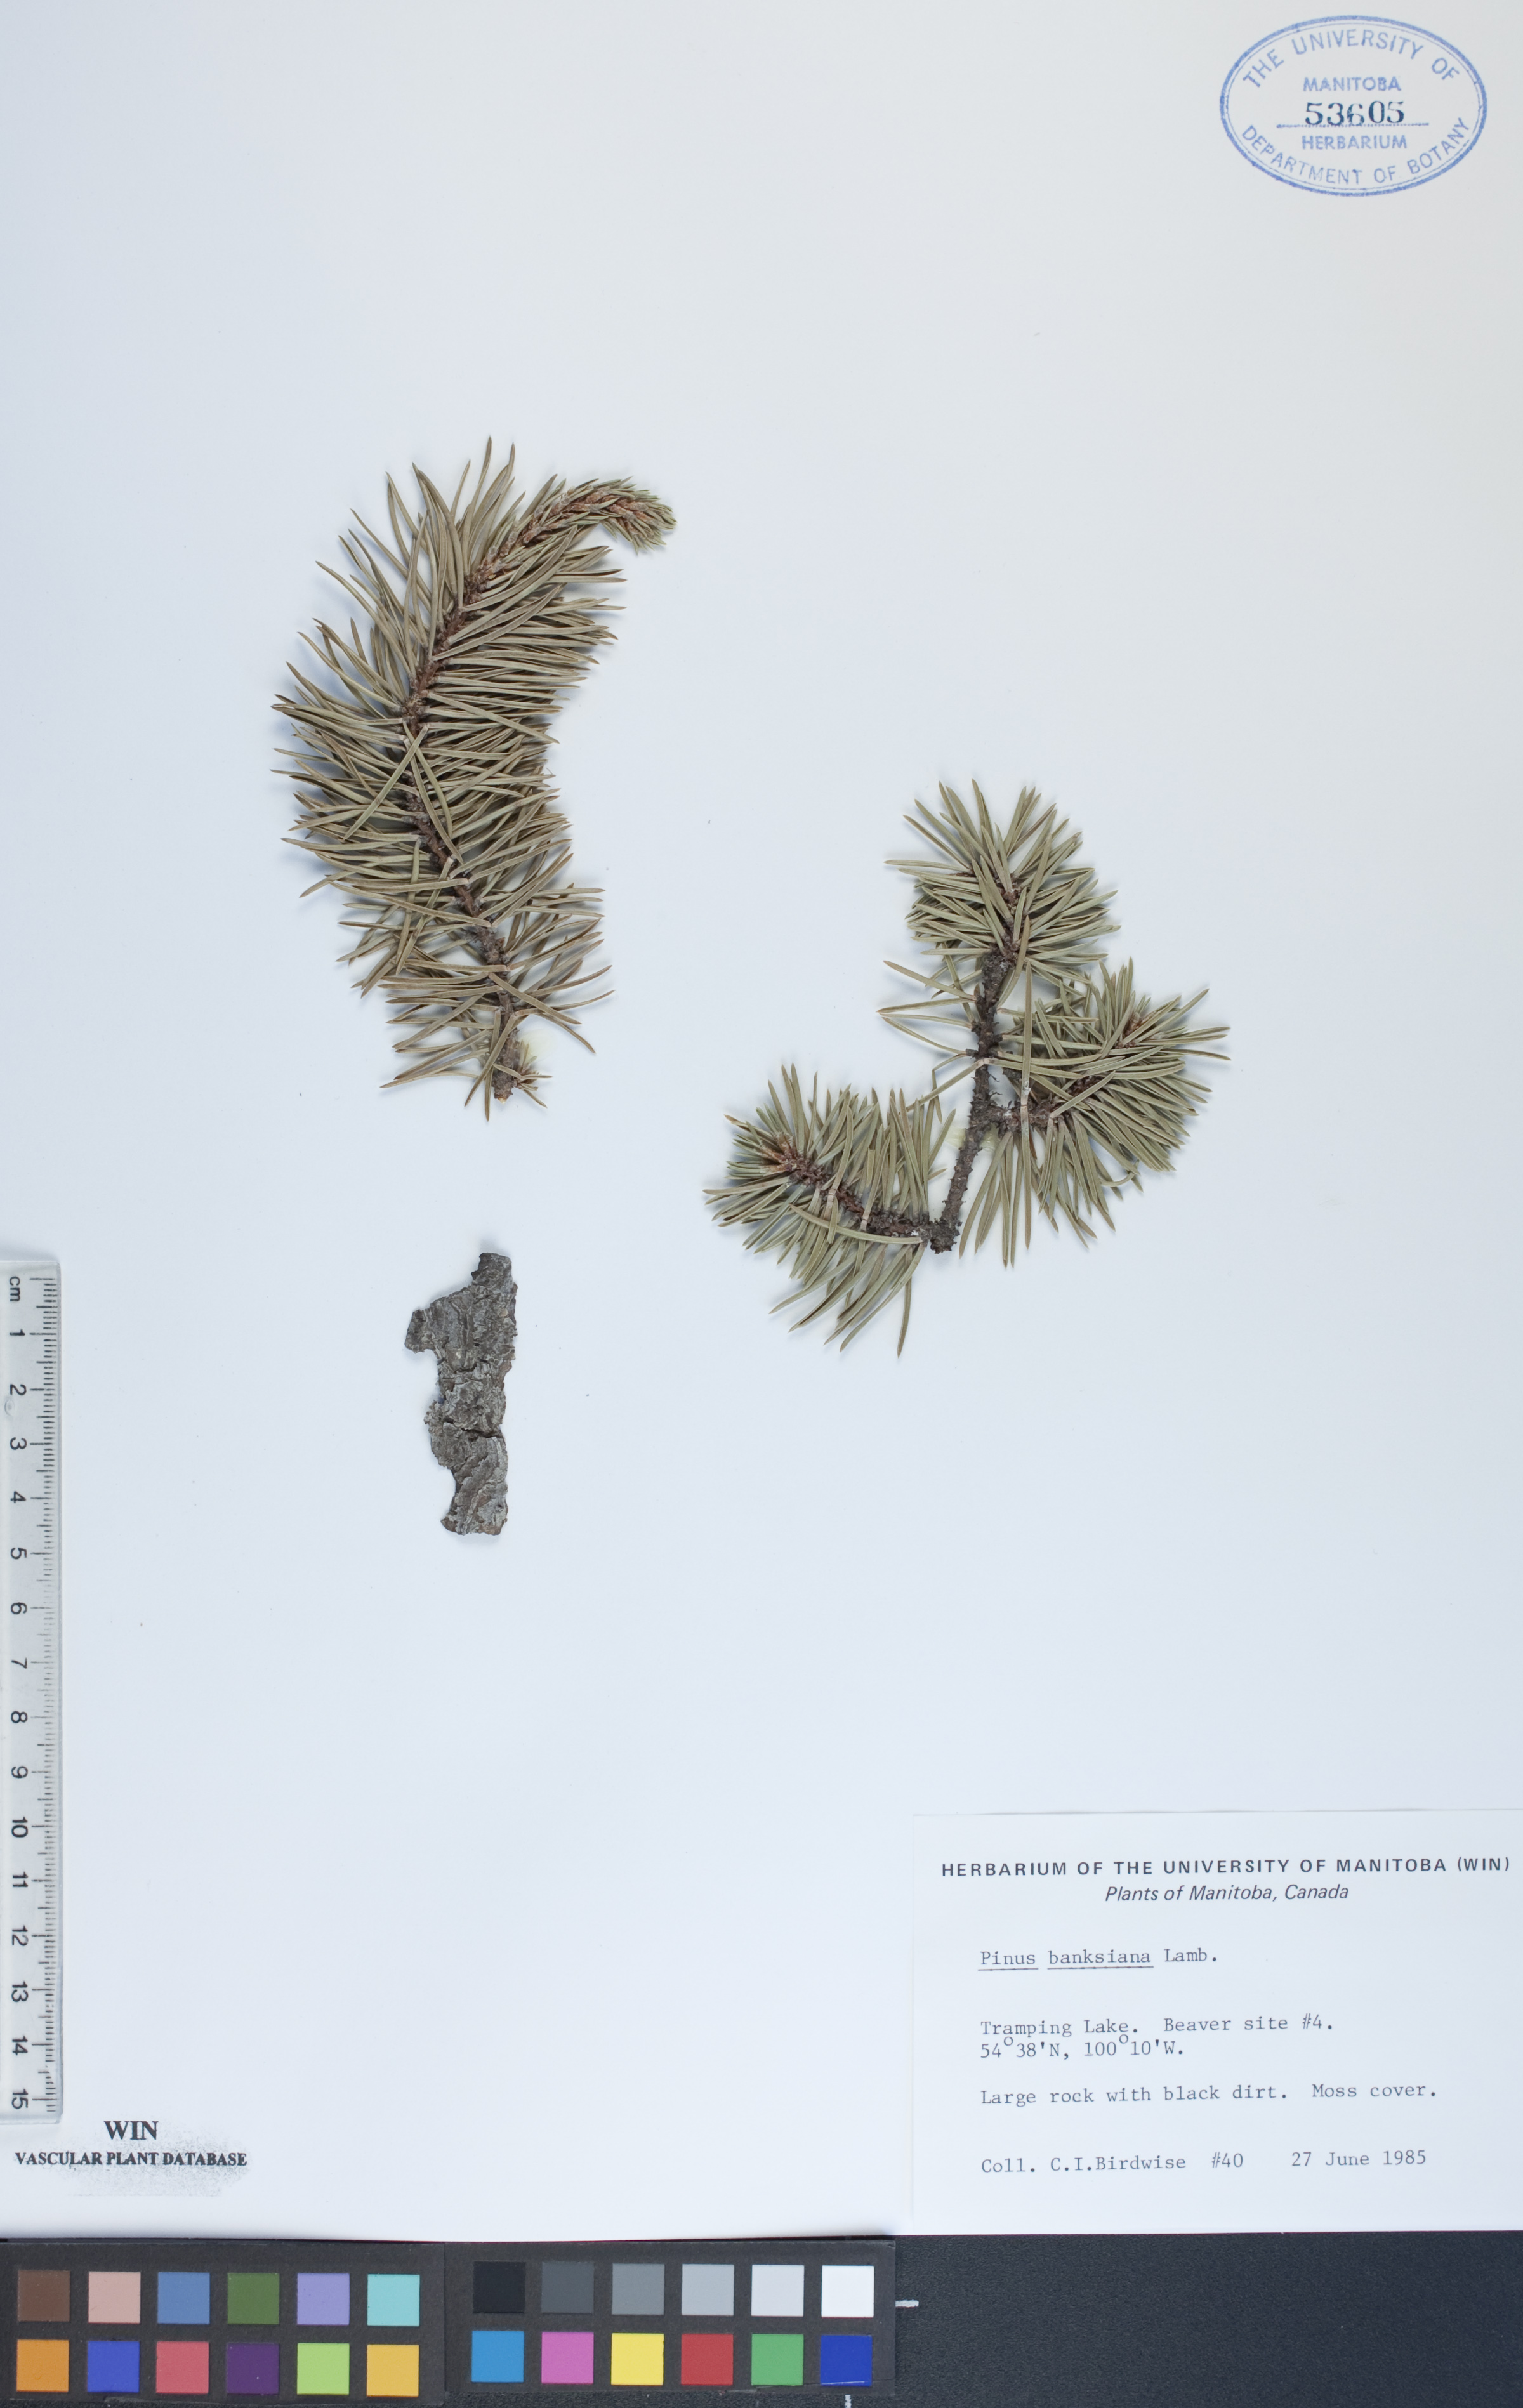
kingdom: Plantae
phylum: Tracheophyta
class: Pinopsida
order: Pinales
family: Pinaceae
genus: Pinus
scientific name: Pinus banksiana
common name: Jack pine
